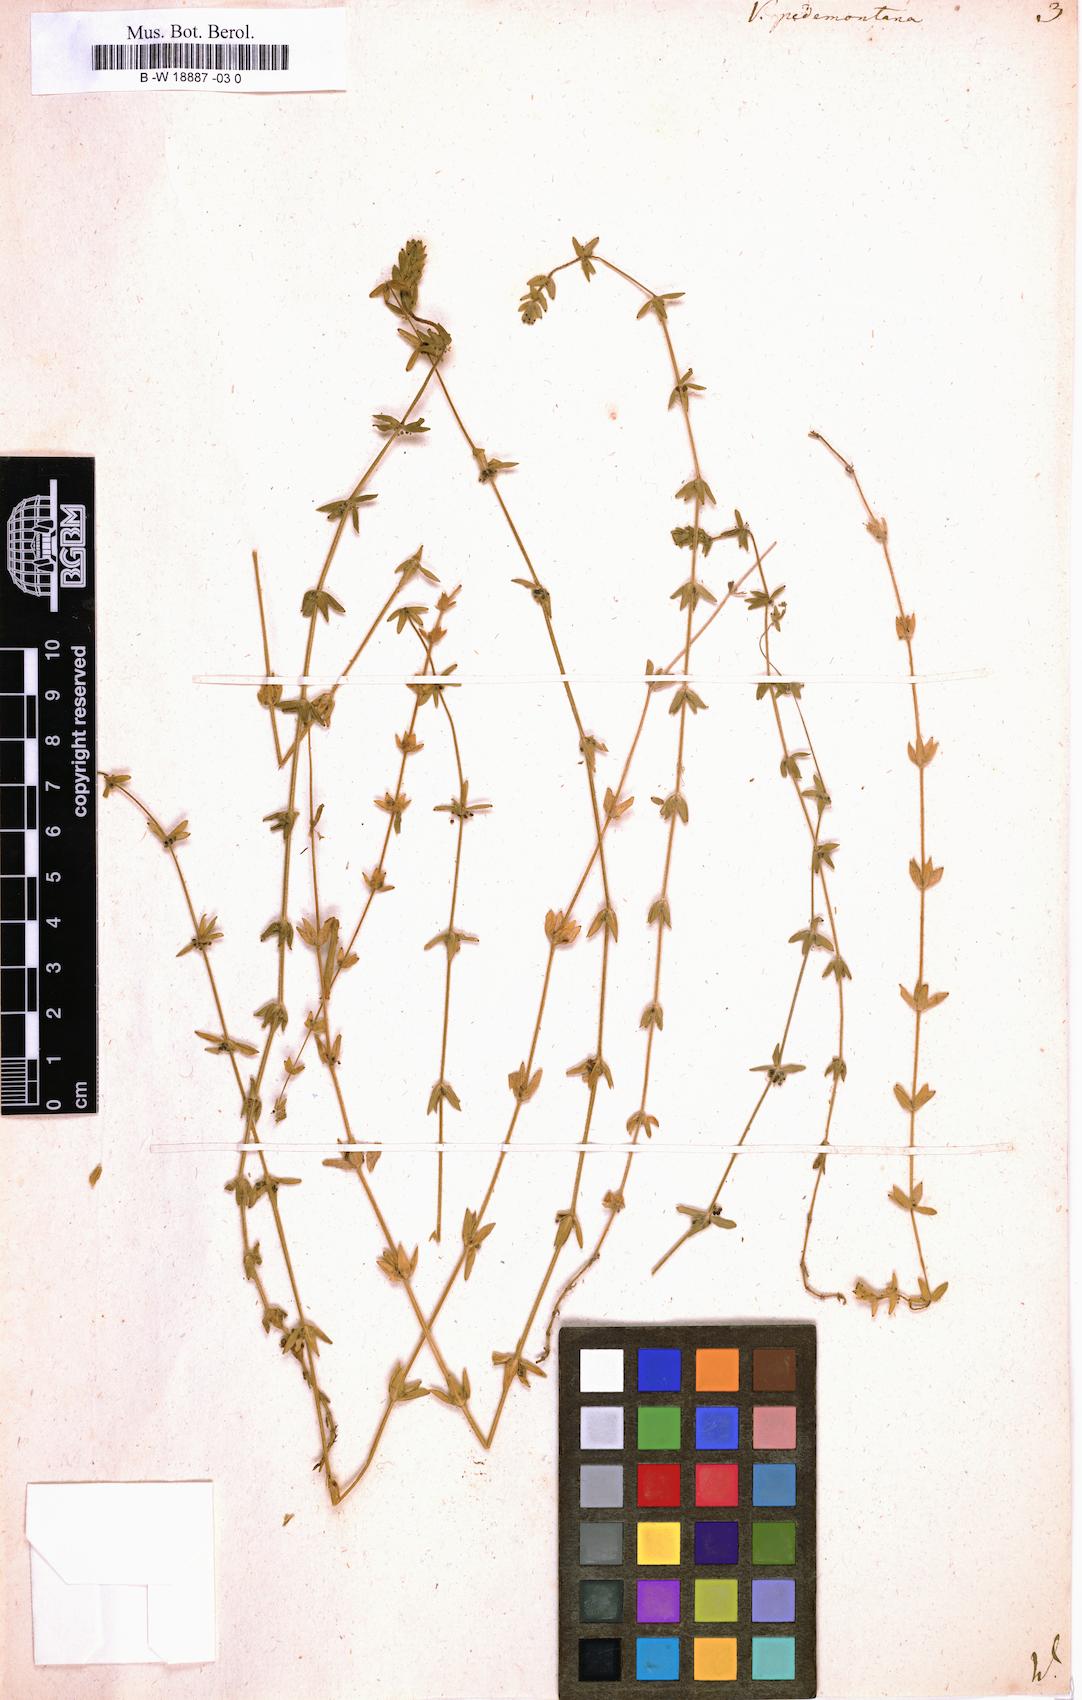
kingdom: Plantae
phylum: Tracheophyta
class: Magnoliopsida
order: Gentianales
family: Rubiaceae
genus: Cruciata
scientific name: Cruciata pedemontana
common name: Piedmont bedstraw
